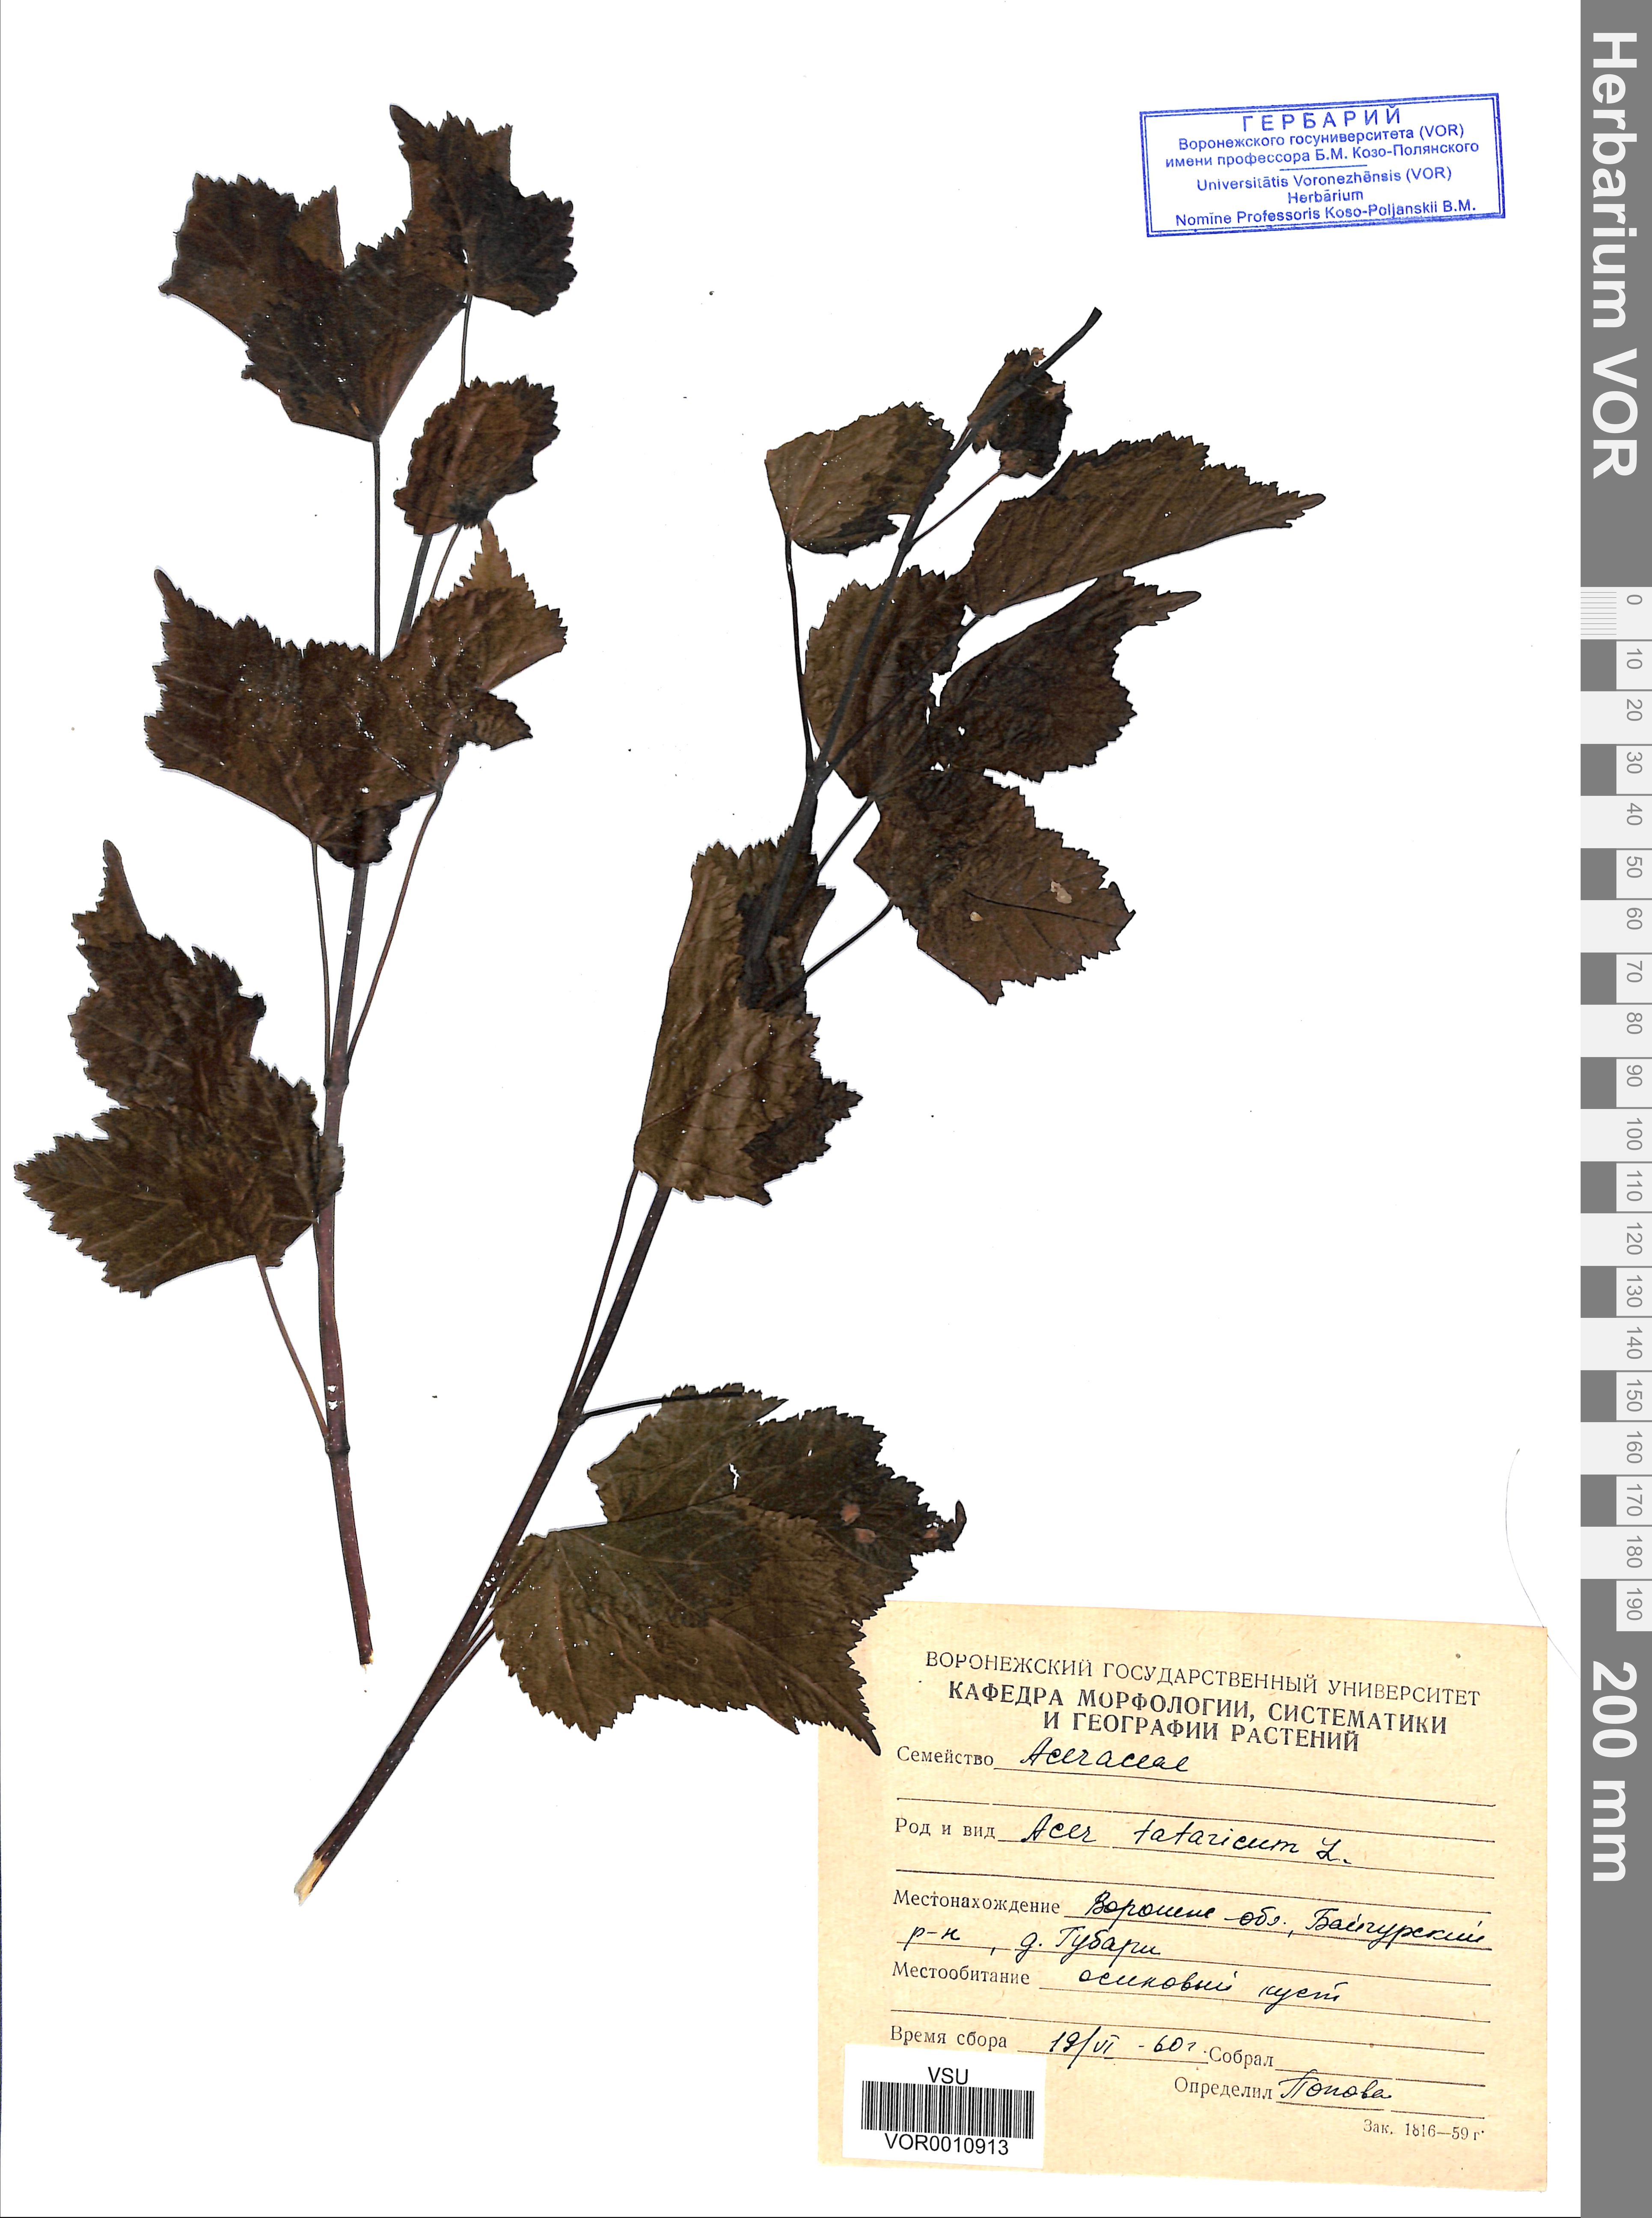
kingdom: Plantae
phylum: Tracheophyta
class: Magnoliopsida
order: Sapindales
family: Sapindaceae
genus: Acer
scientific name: Acer tataricum
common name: Tartar maple
